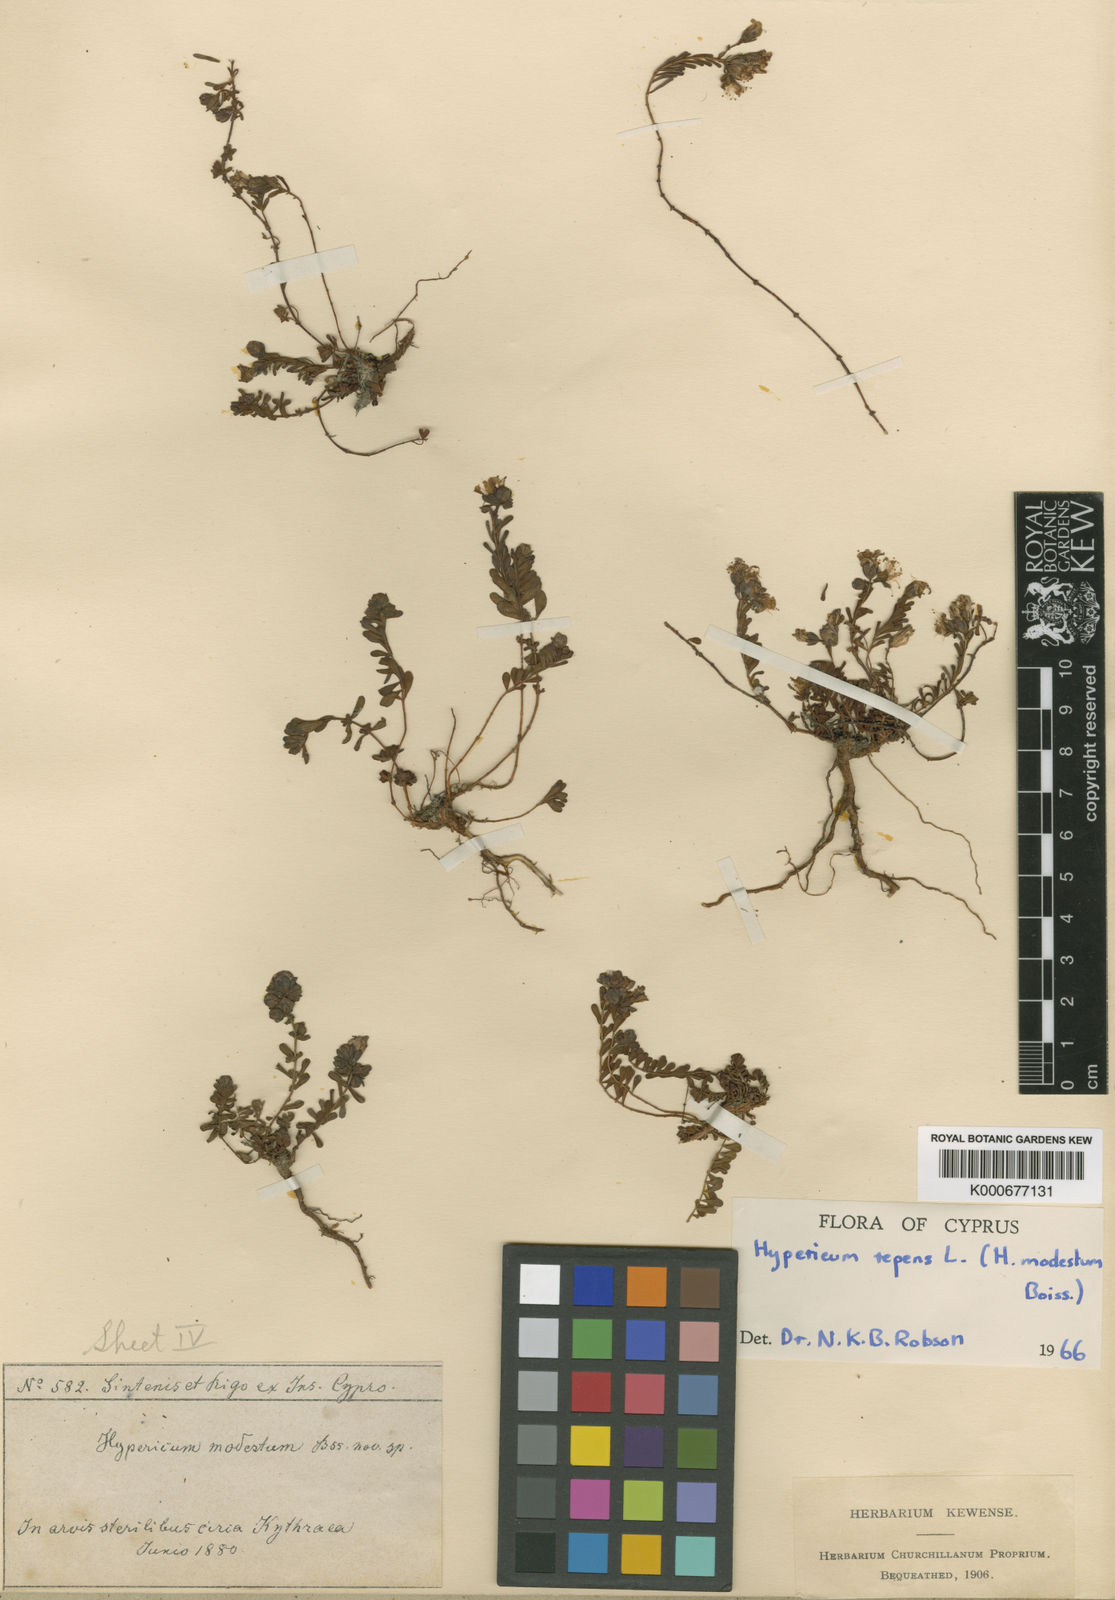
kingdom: Plantae
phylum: Tracheophyta
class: Magnoliopsida
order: Malpighiales
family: Hypericaceae
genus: Hypericum
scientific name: Hypericum repens
